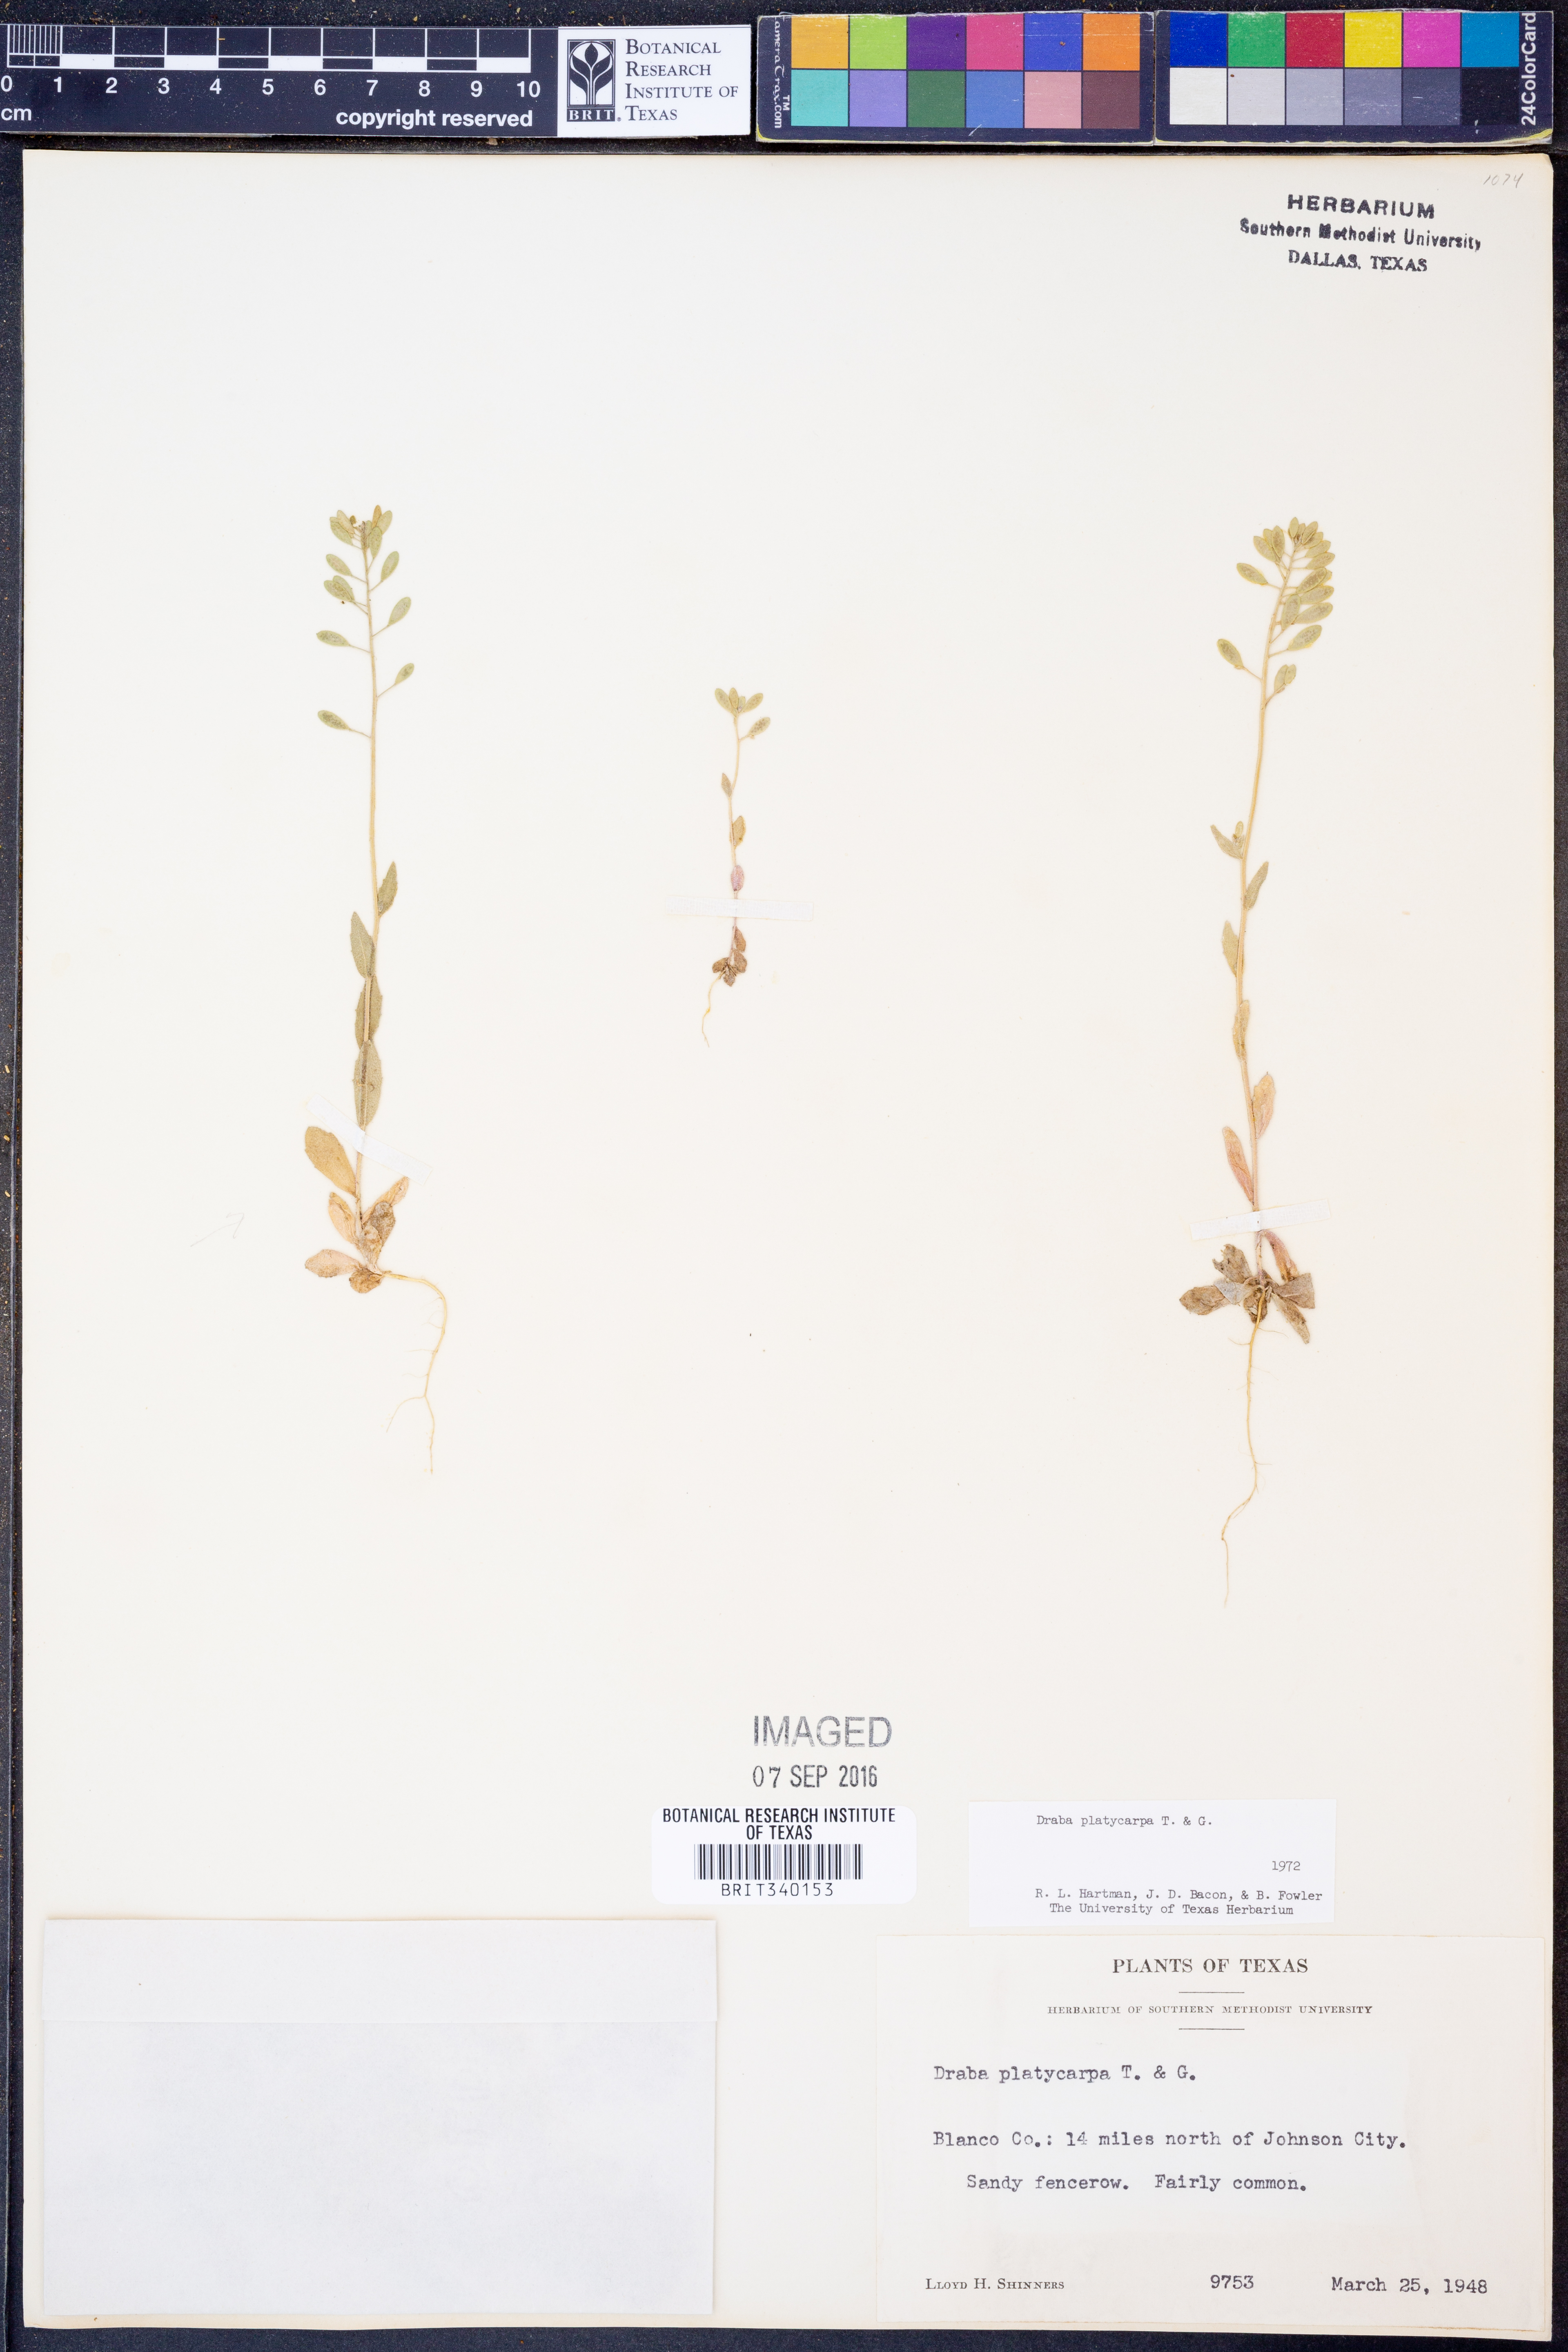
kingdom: Plantae
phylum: Tracheophyta
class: Magnoliopsida
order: Brassicales
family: Brassicaceae
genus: Tomostima
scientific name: Tomostima platycarpa
